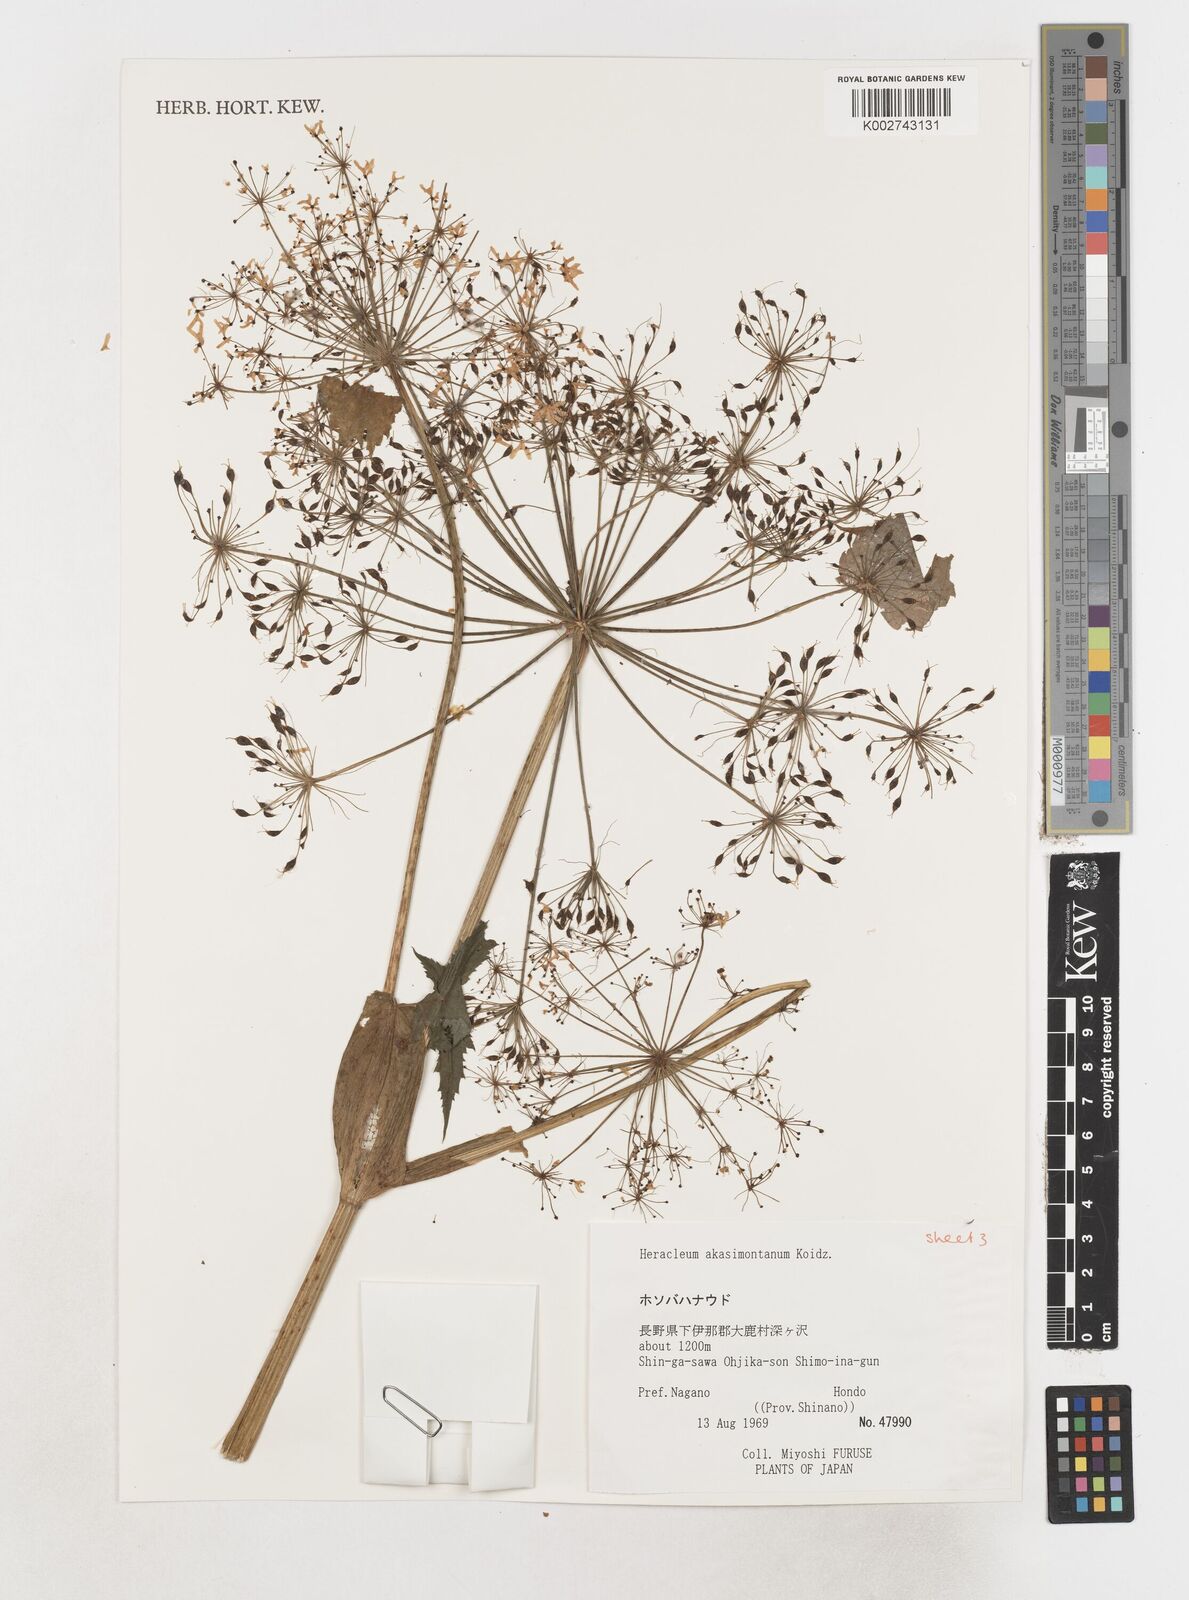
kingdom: Plantae
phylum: Tracheophyta
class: Magnoliopsida
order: Apiales
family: Apiaceae
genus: Heracleum
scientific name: Heracleum akasimontanum
